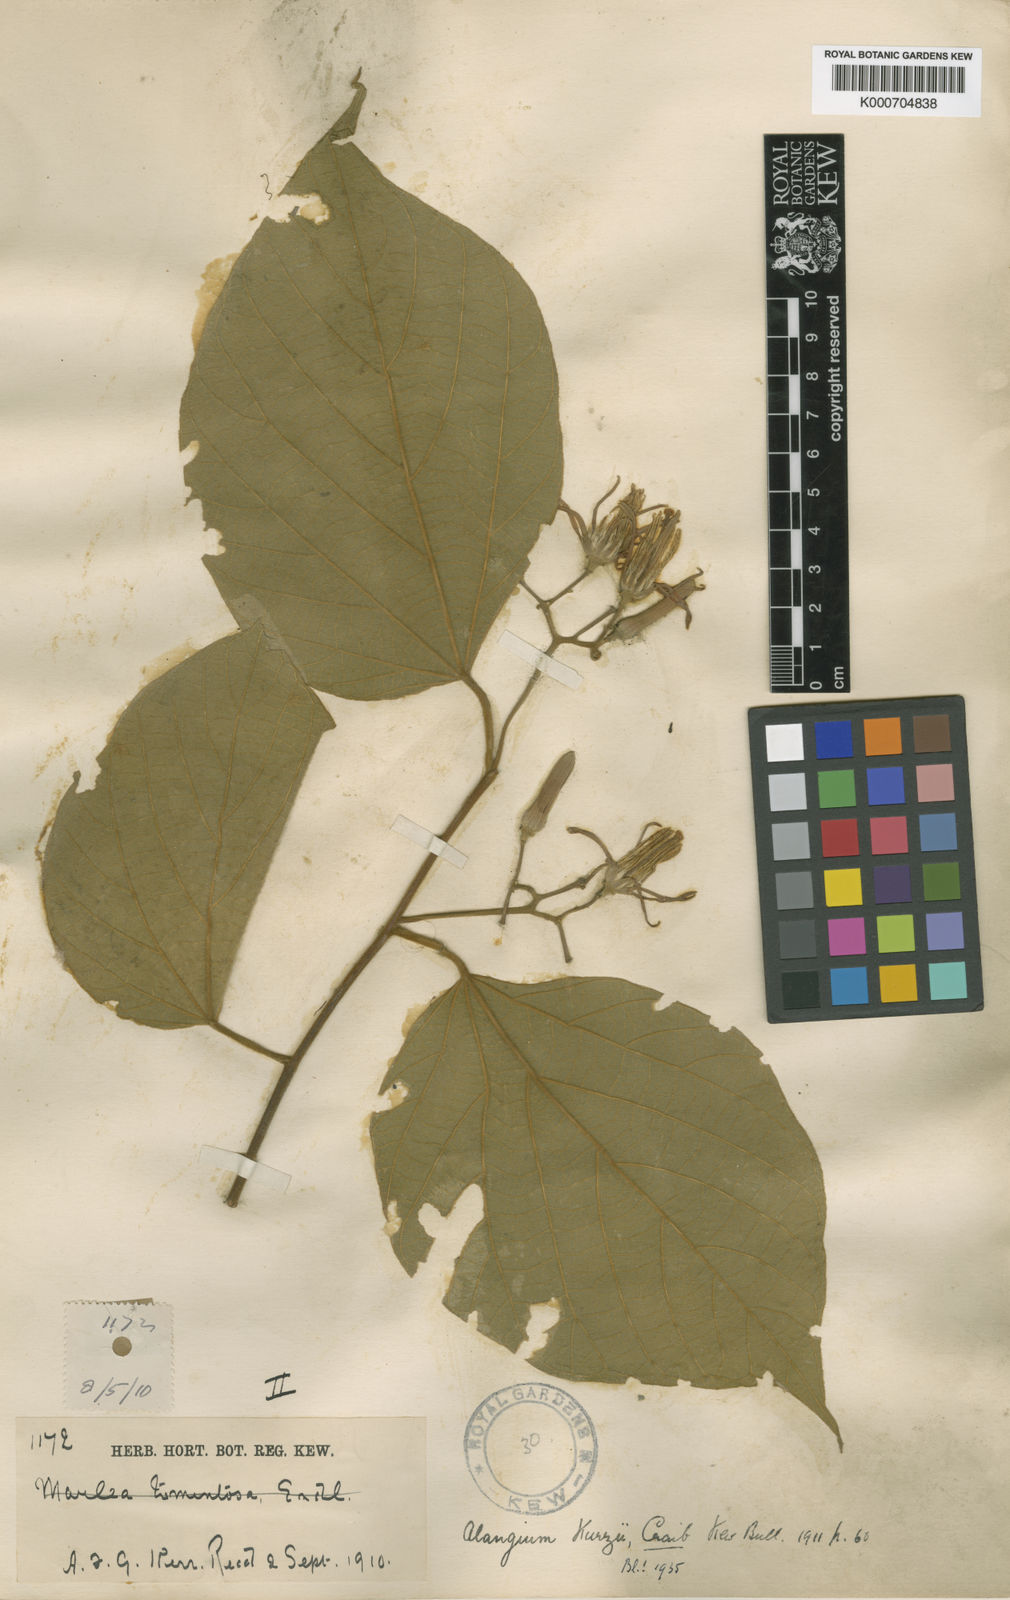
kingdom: Plantae
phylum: Tracheophyta
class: Magnoliopsida
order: Cornales
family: Cornaceae
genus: Alangium
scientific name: Alangium kurzii
